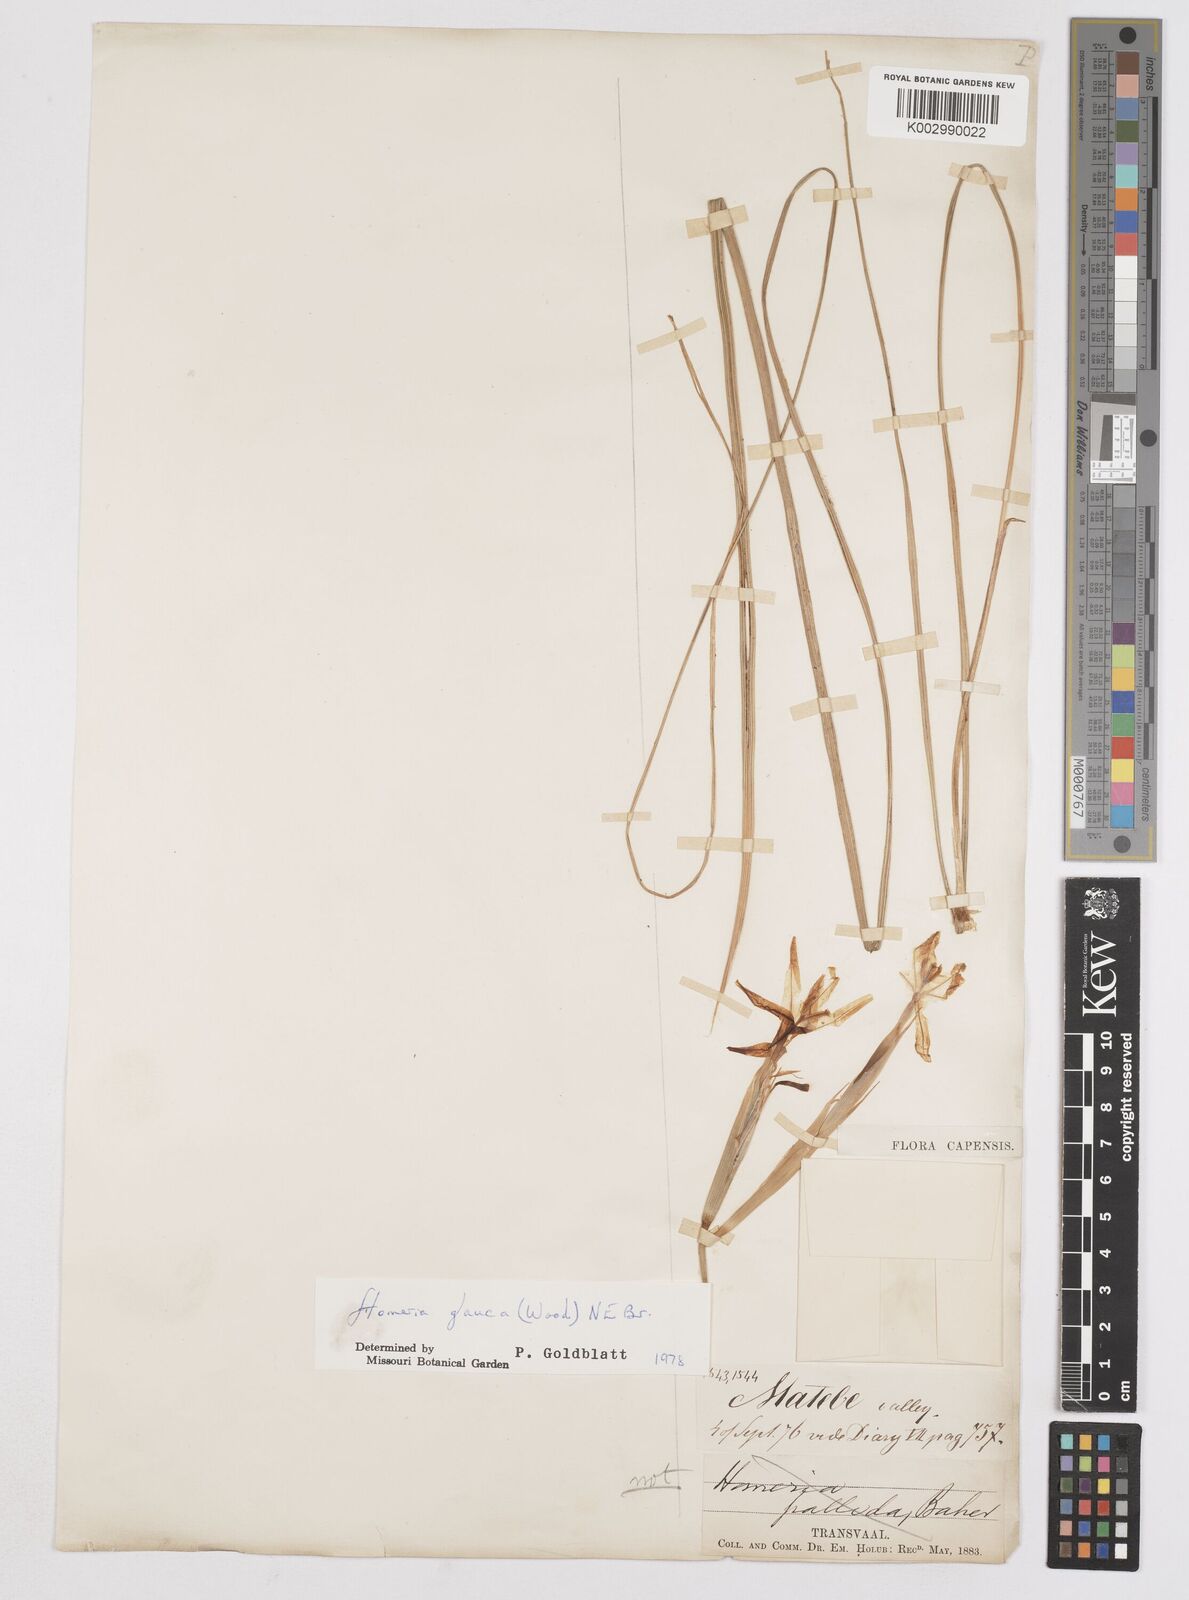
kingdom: Plantae
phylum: Tracheophyta
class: Liliopsida
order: Asparagales
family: Iridaceae
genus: Moraea
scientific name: Moraea pallida
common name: Yellow tulp
